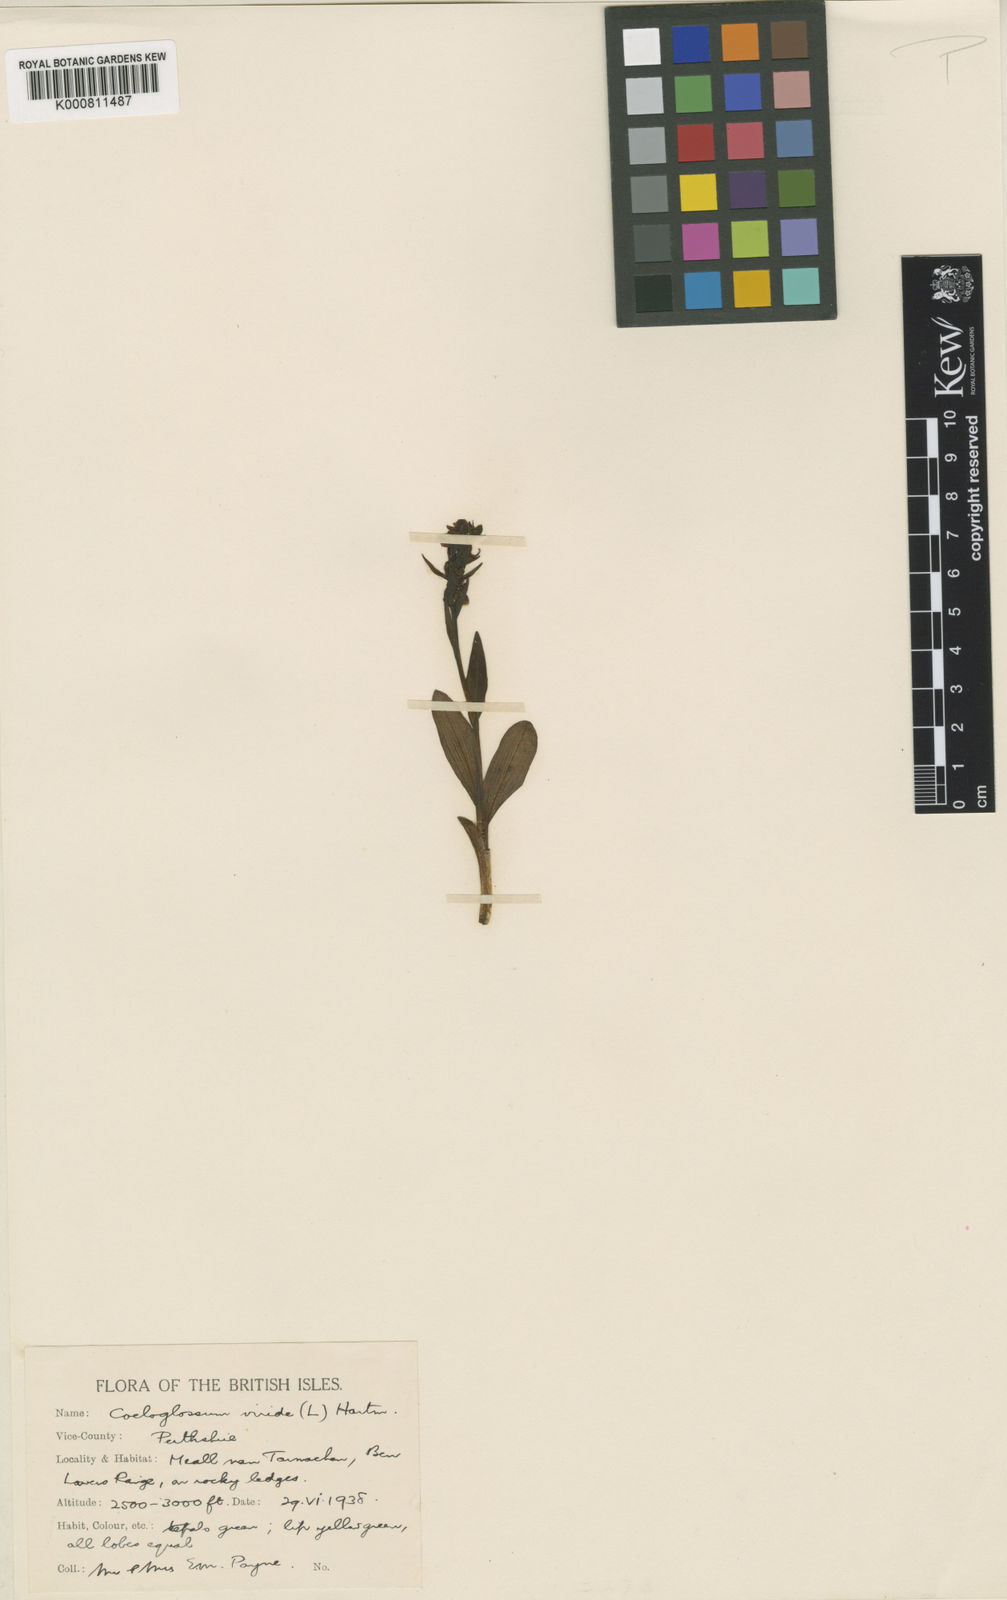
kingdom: Plantae
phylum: Tracheophyta
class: Liliopsida
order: Asparagales
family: Orchidaceae
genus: Dactylorhiza
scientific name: Dactylorhiza viridis
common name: Longbract frog orchid
